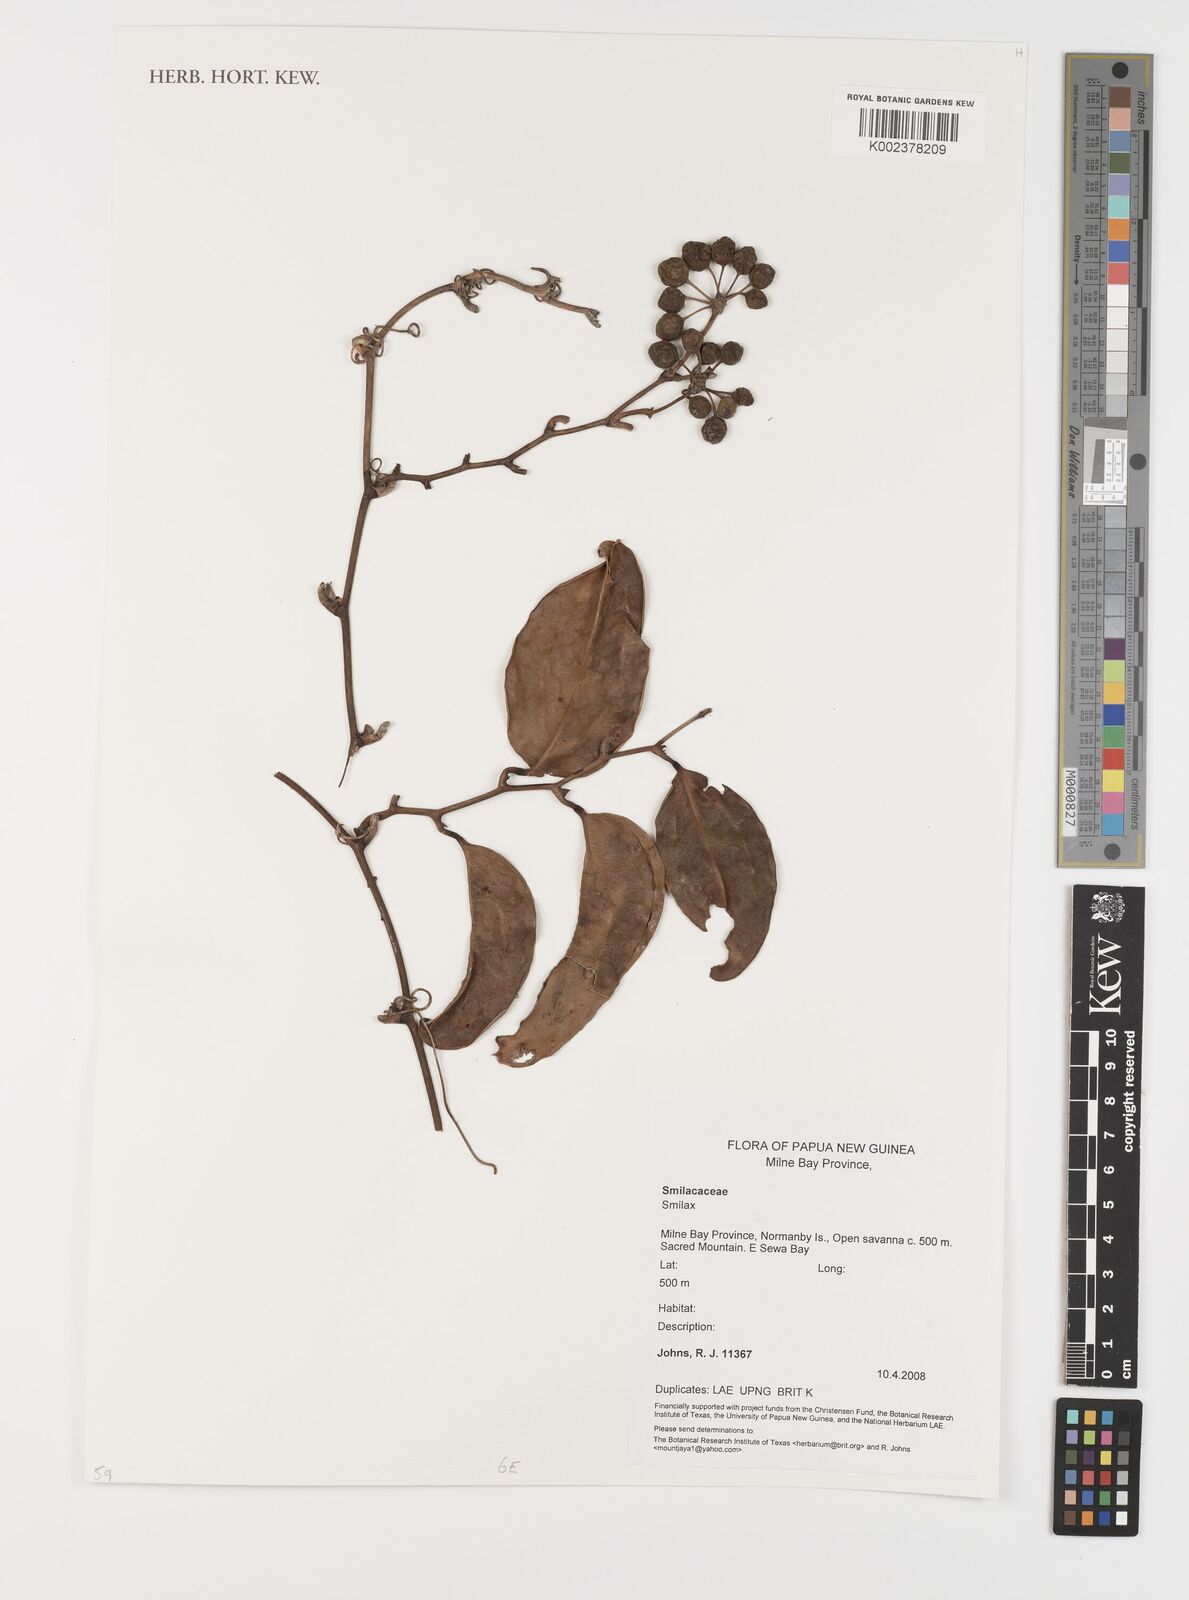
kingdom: Plantae
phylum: Tracheophyta
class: Liliopsida
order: Liliales
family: Smilacaceae
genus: Smilax
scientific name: Smilax
